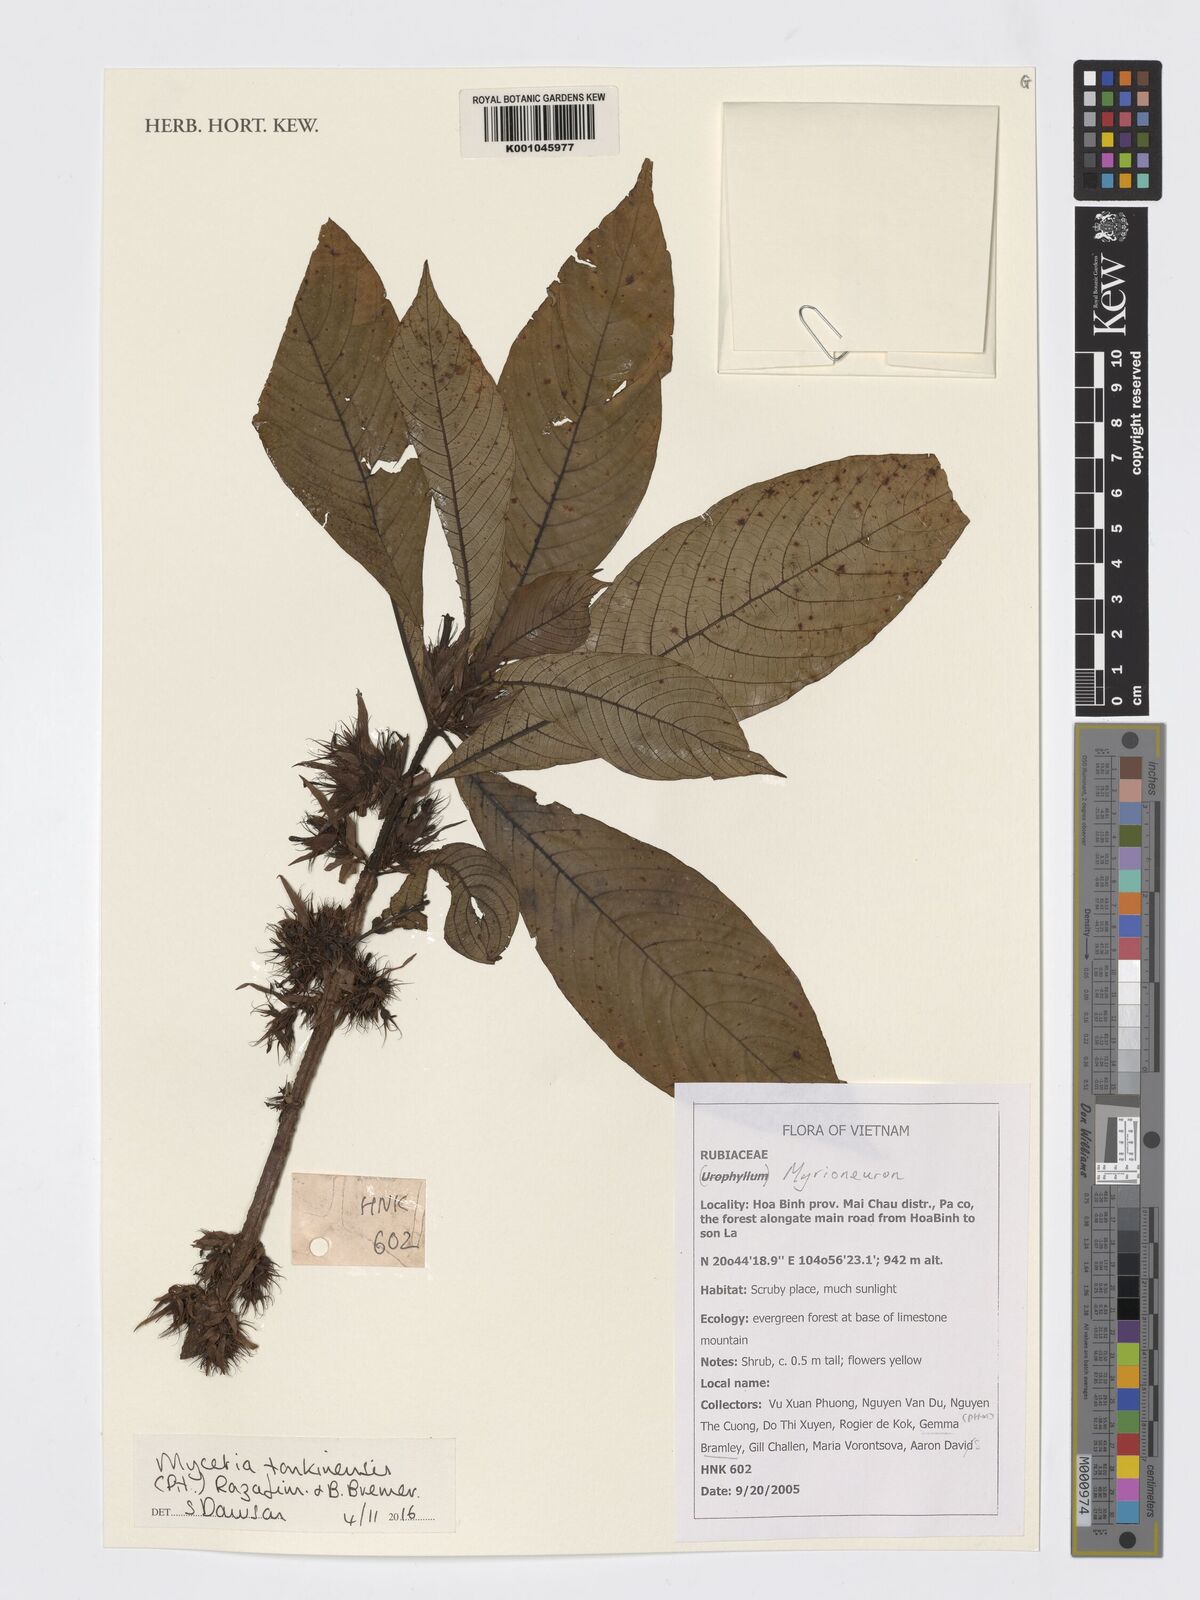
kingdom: Plantae
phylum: Tracheophyta
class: Magnoliopsida
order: Gentianales
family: Rubiaceae
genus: Mycetia
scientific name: Mycetia tonkinensis
